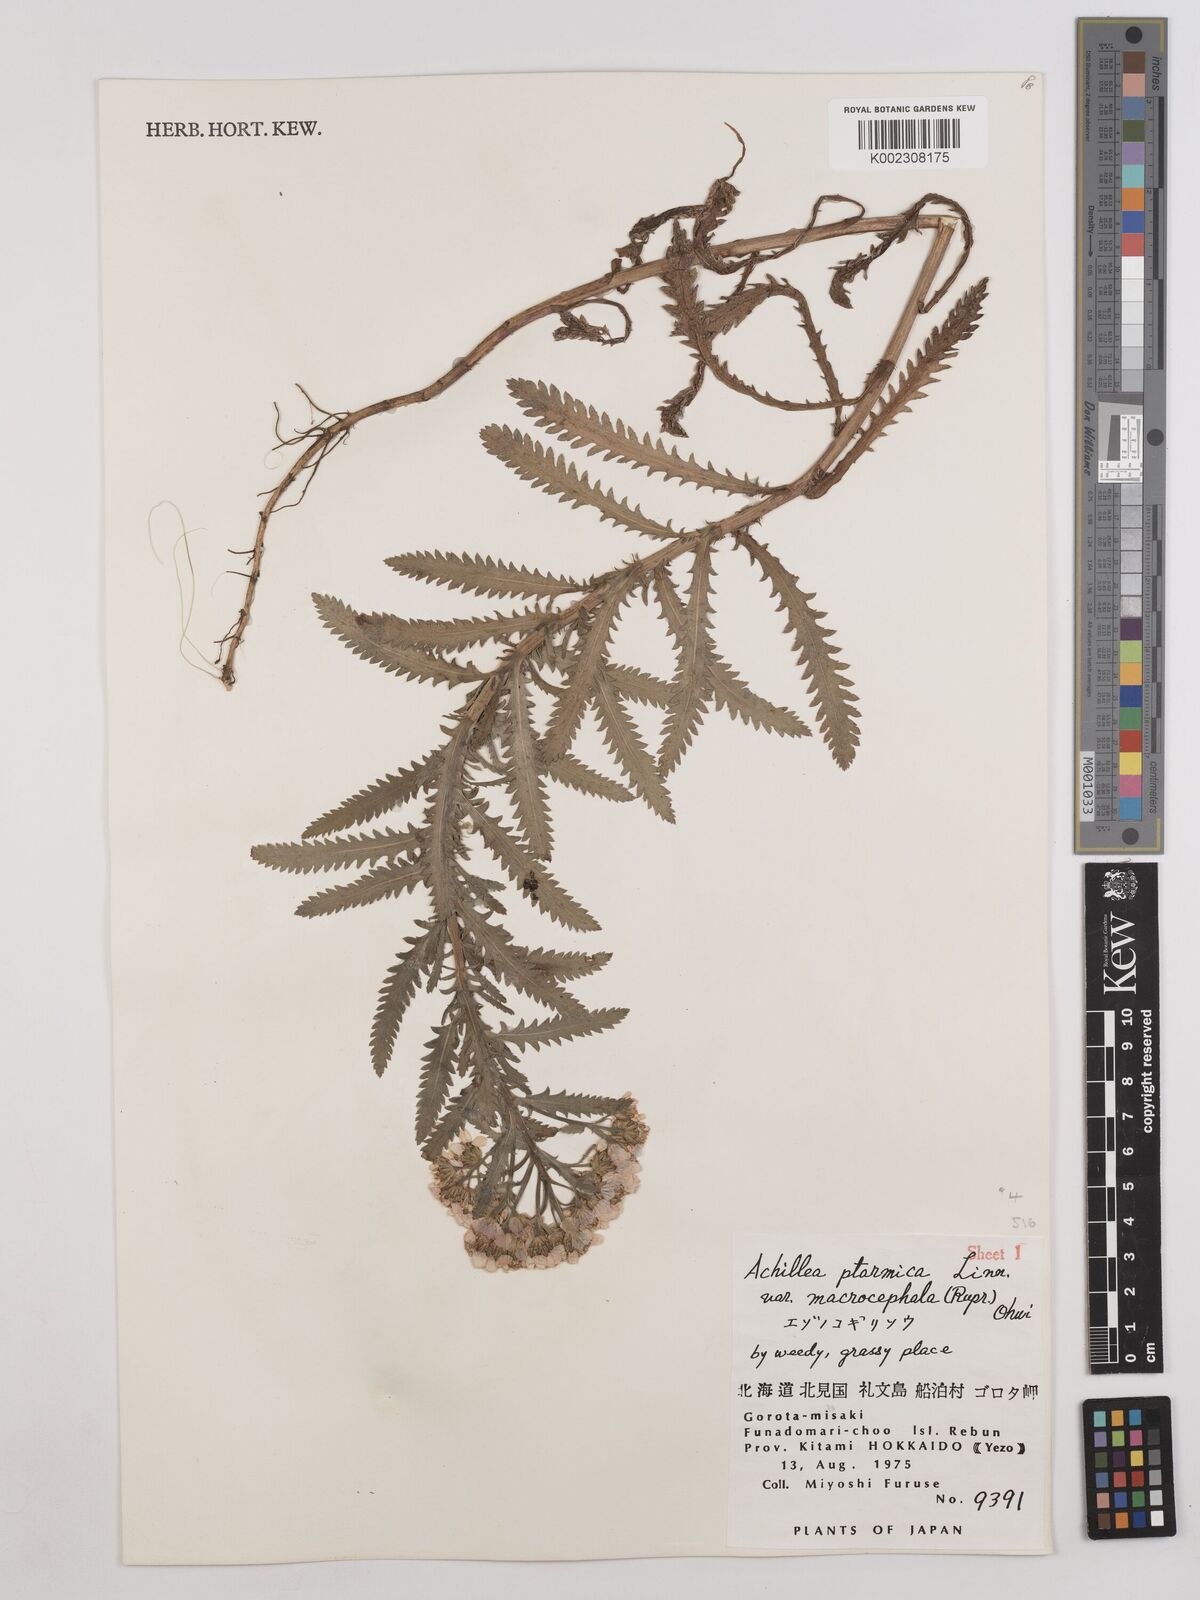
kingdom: Plantae
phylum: Tracheophyta
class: Magnoliopsida
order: Asterales
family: Asteraceae
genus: Achillea
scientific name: Achillea ptarmicoides
